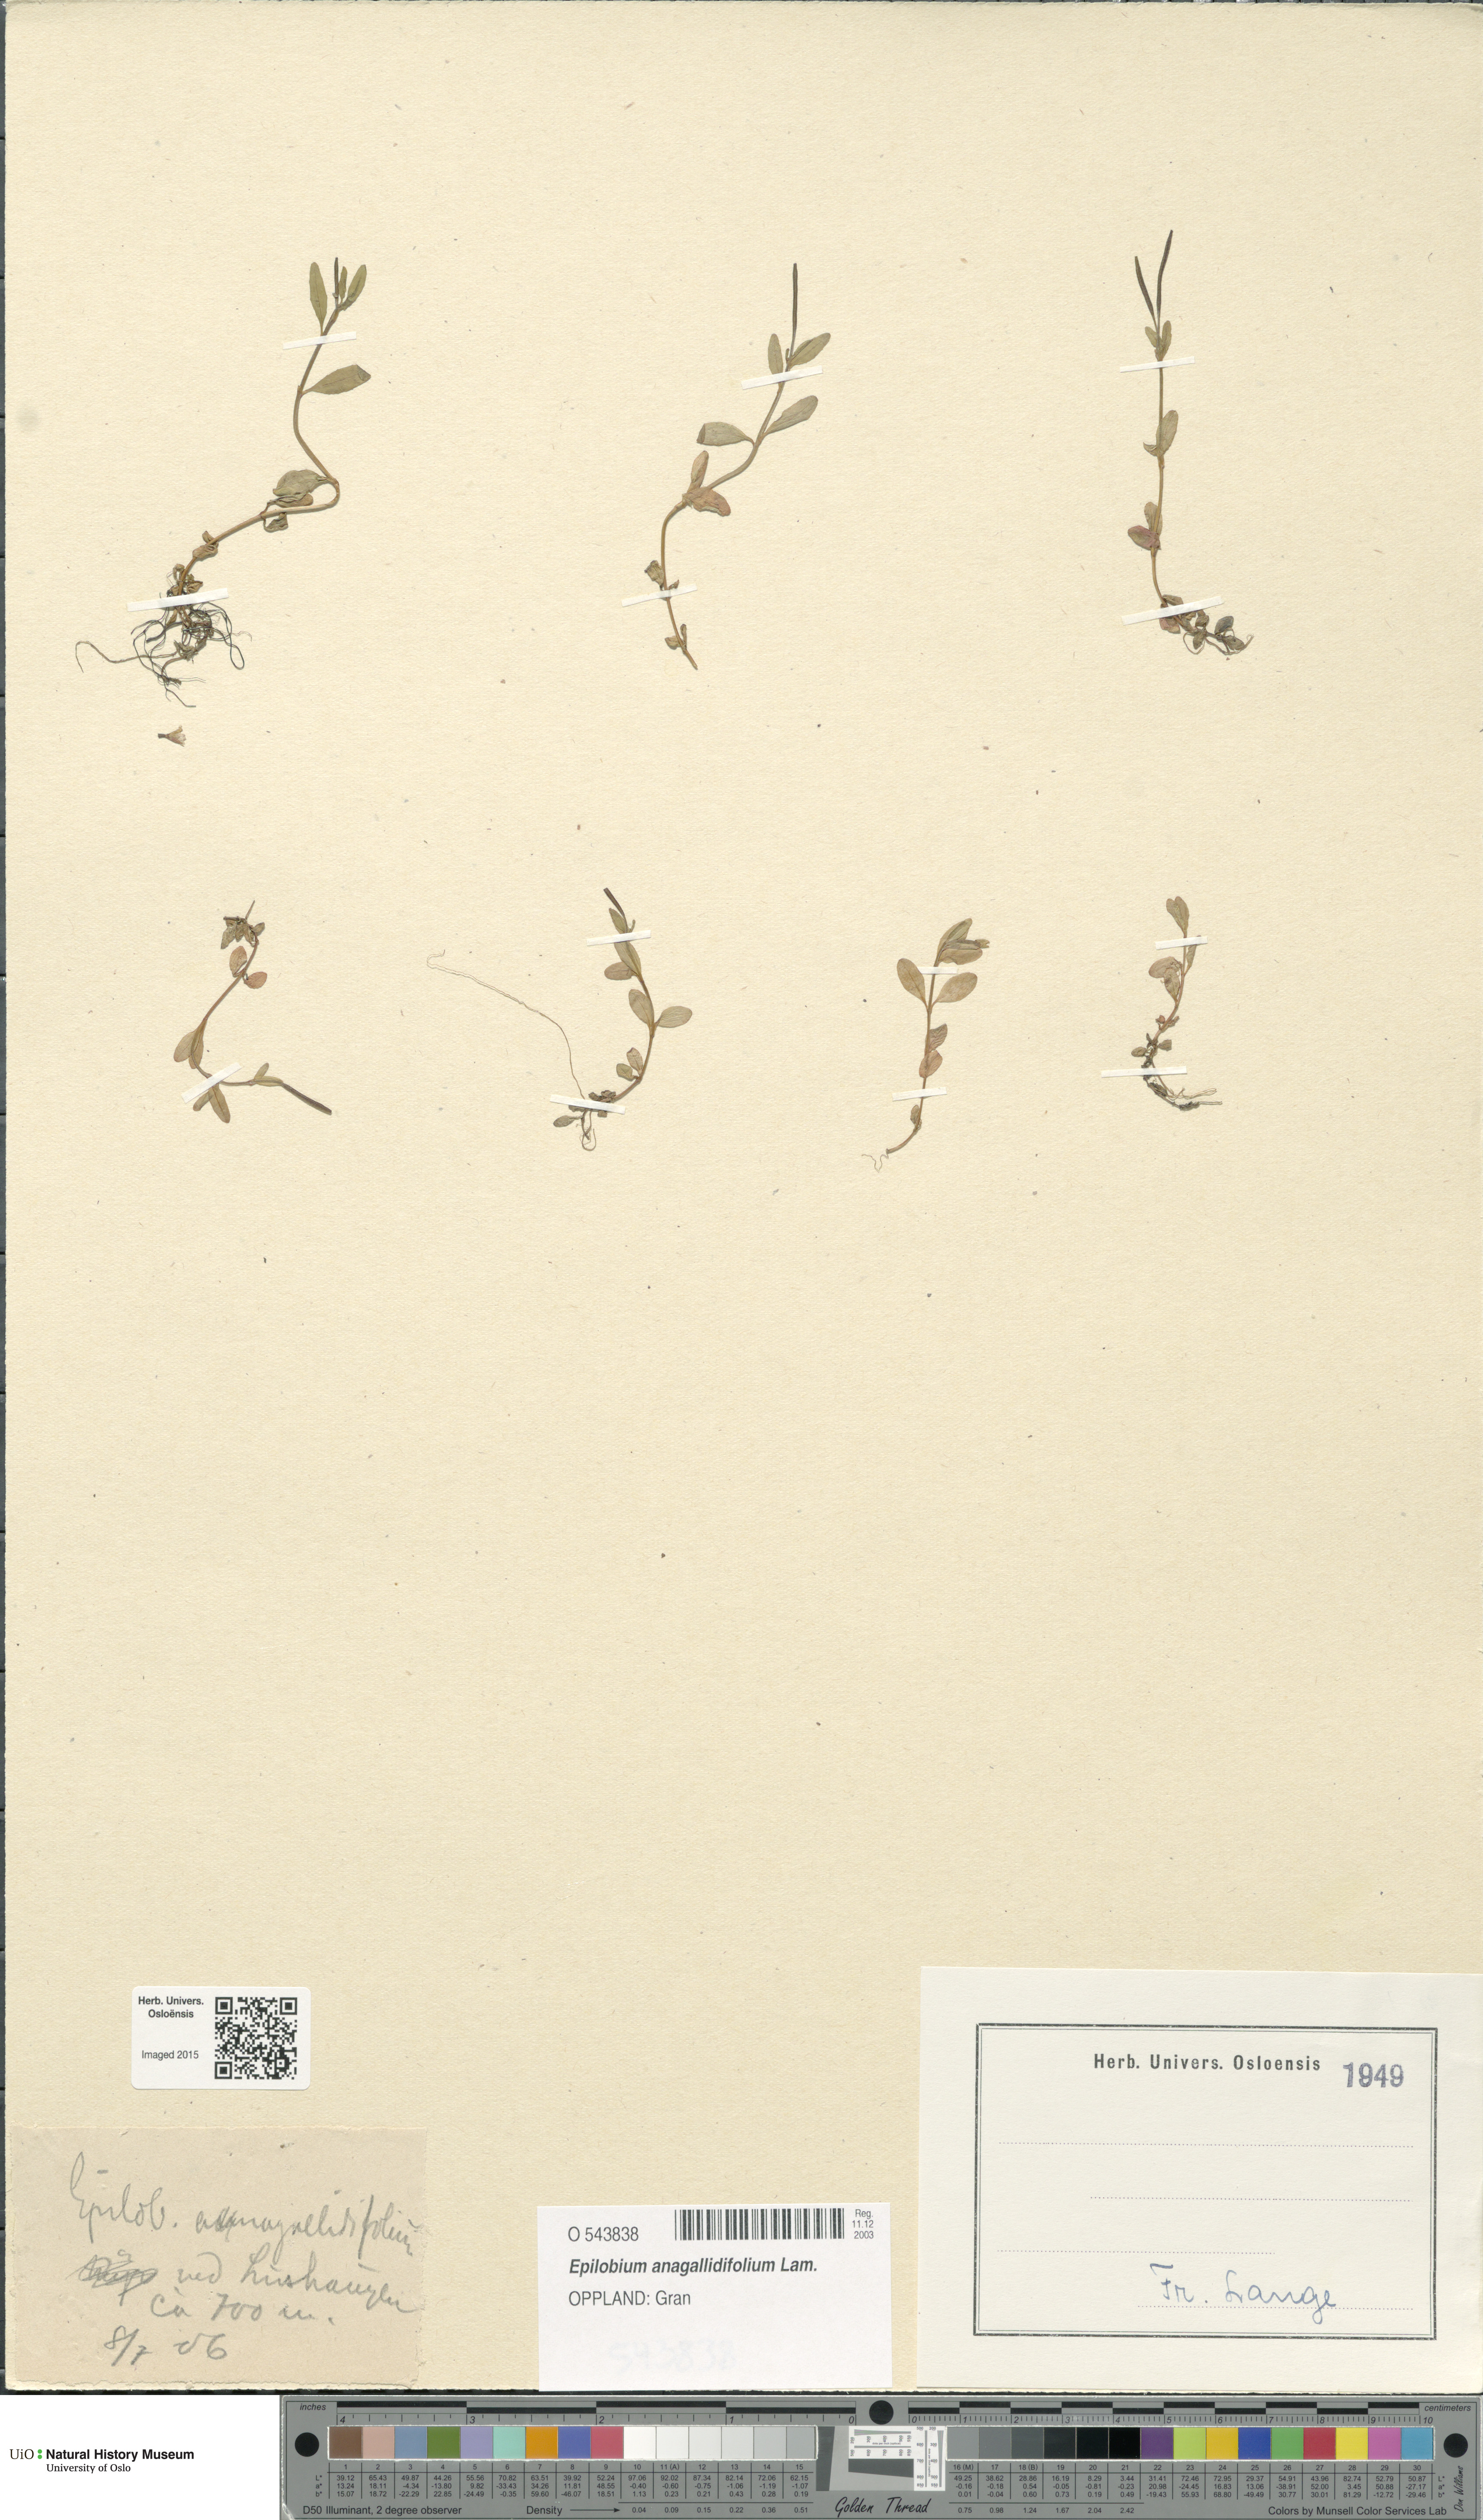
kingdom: Plantae
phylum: Tracheophyta
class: Magnoliopsida
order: Myrtales
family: Onagraceae
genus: Epilobium
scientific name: Epilobium anagallidifolium
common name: Alpine willowherb
